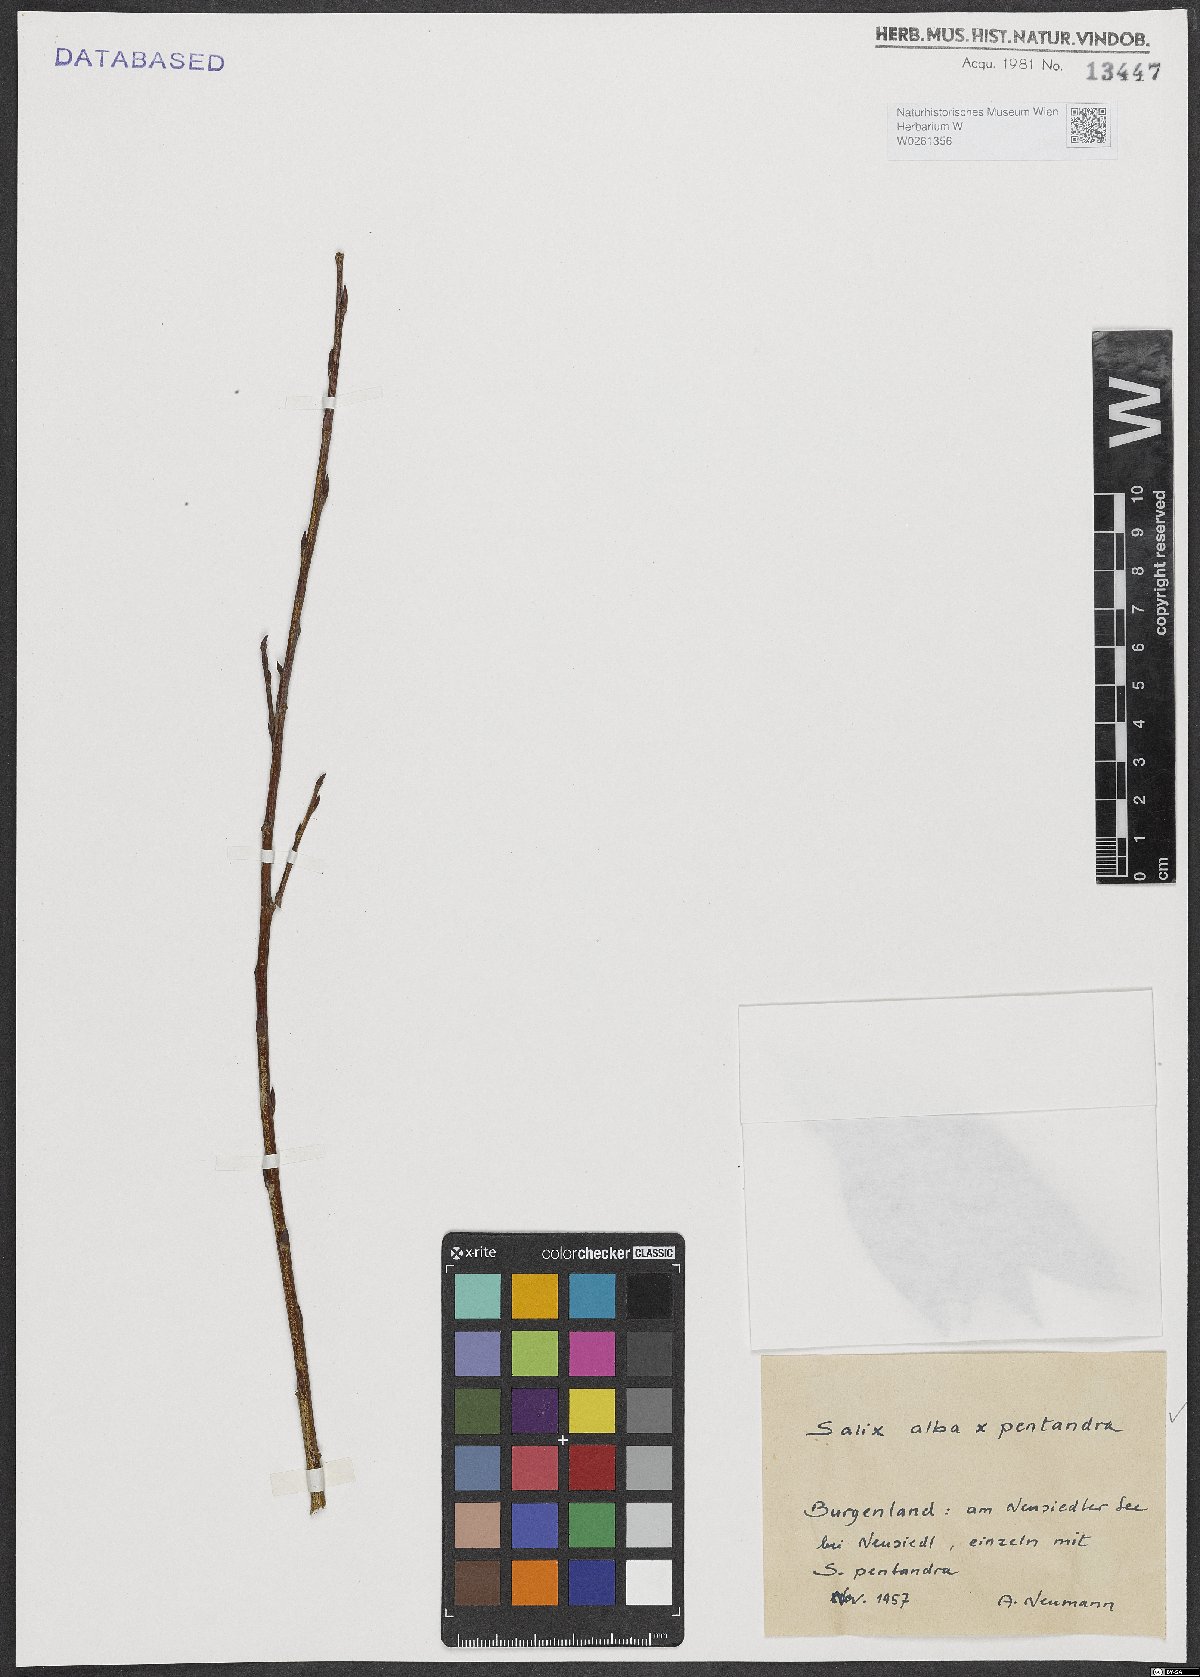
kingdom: Plantae
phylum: Tracheophyta
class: Magnoliopsida
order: Malpighiales
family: Salicaceae
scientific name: Salicaceae
